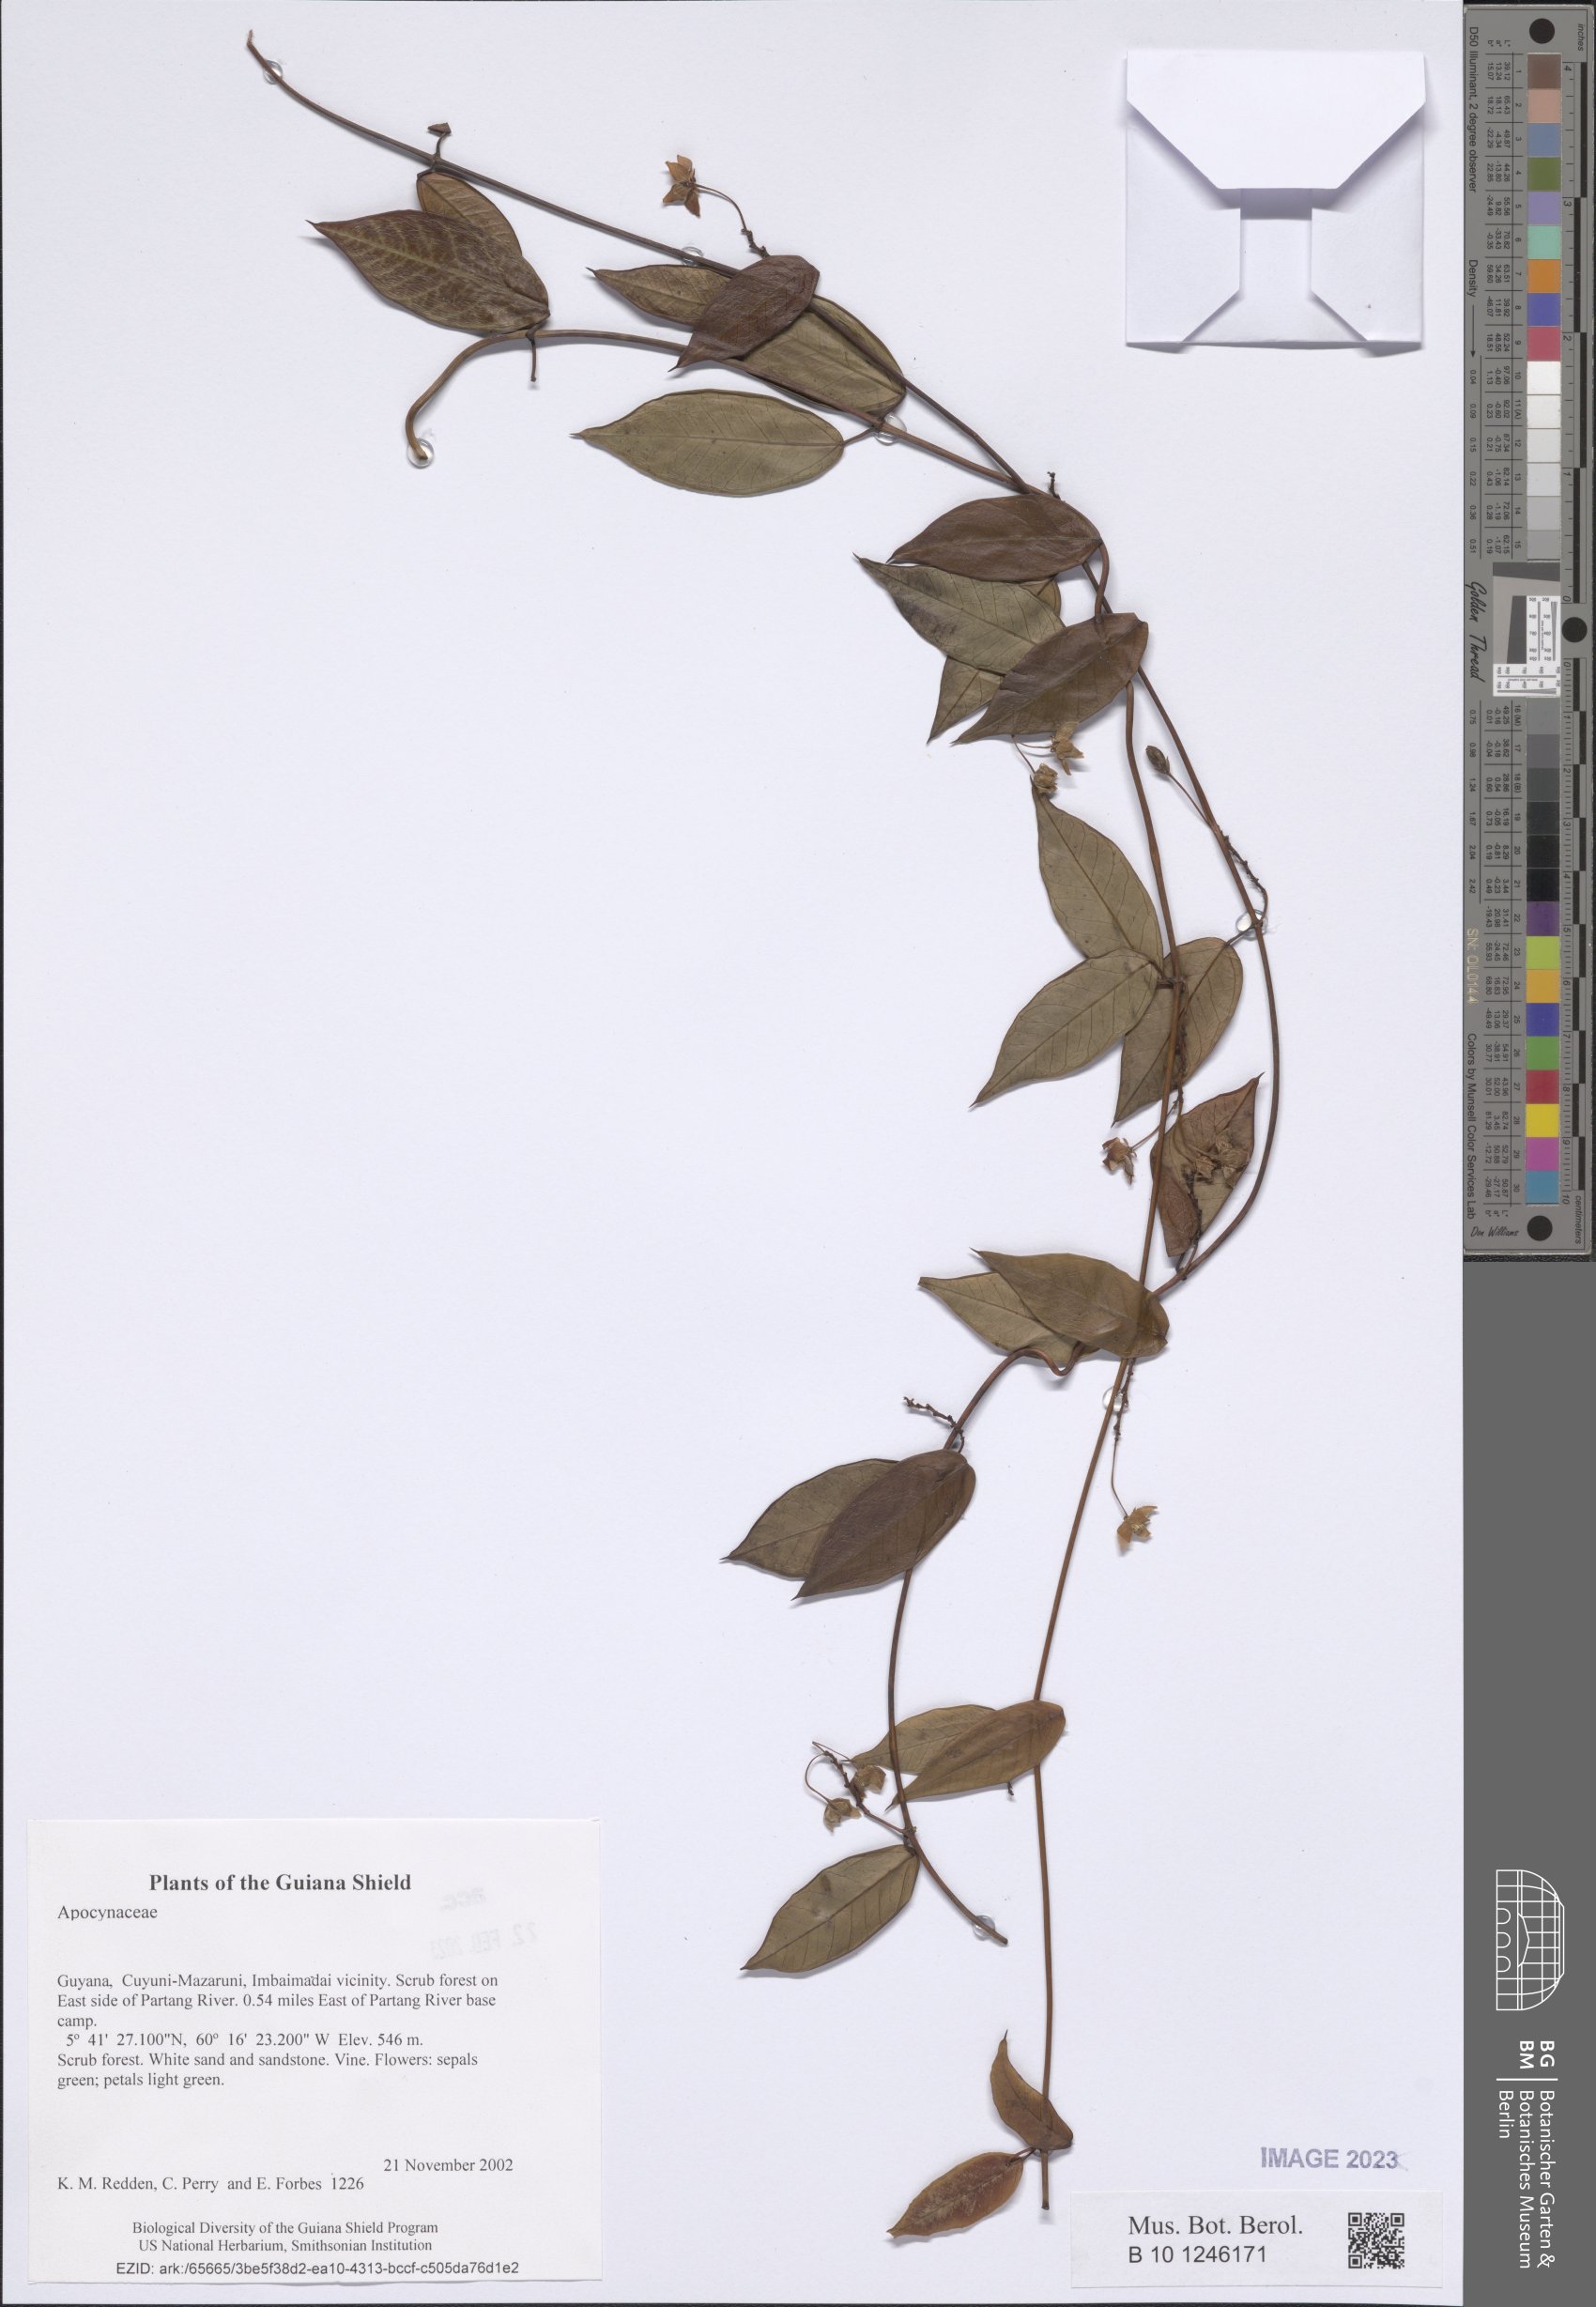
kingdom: Plantae
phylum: Tracheophyta
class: Magnoliopsida
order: Gentianales
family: Apocynaceae
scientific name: Apocynaceae
